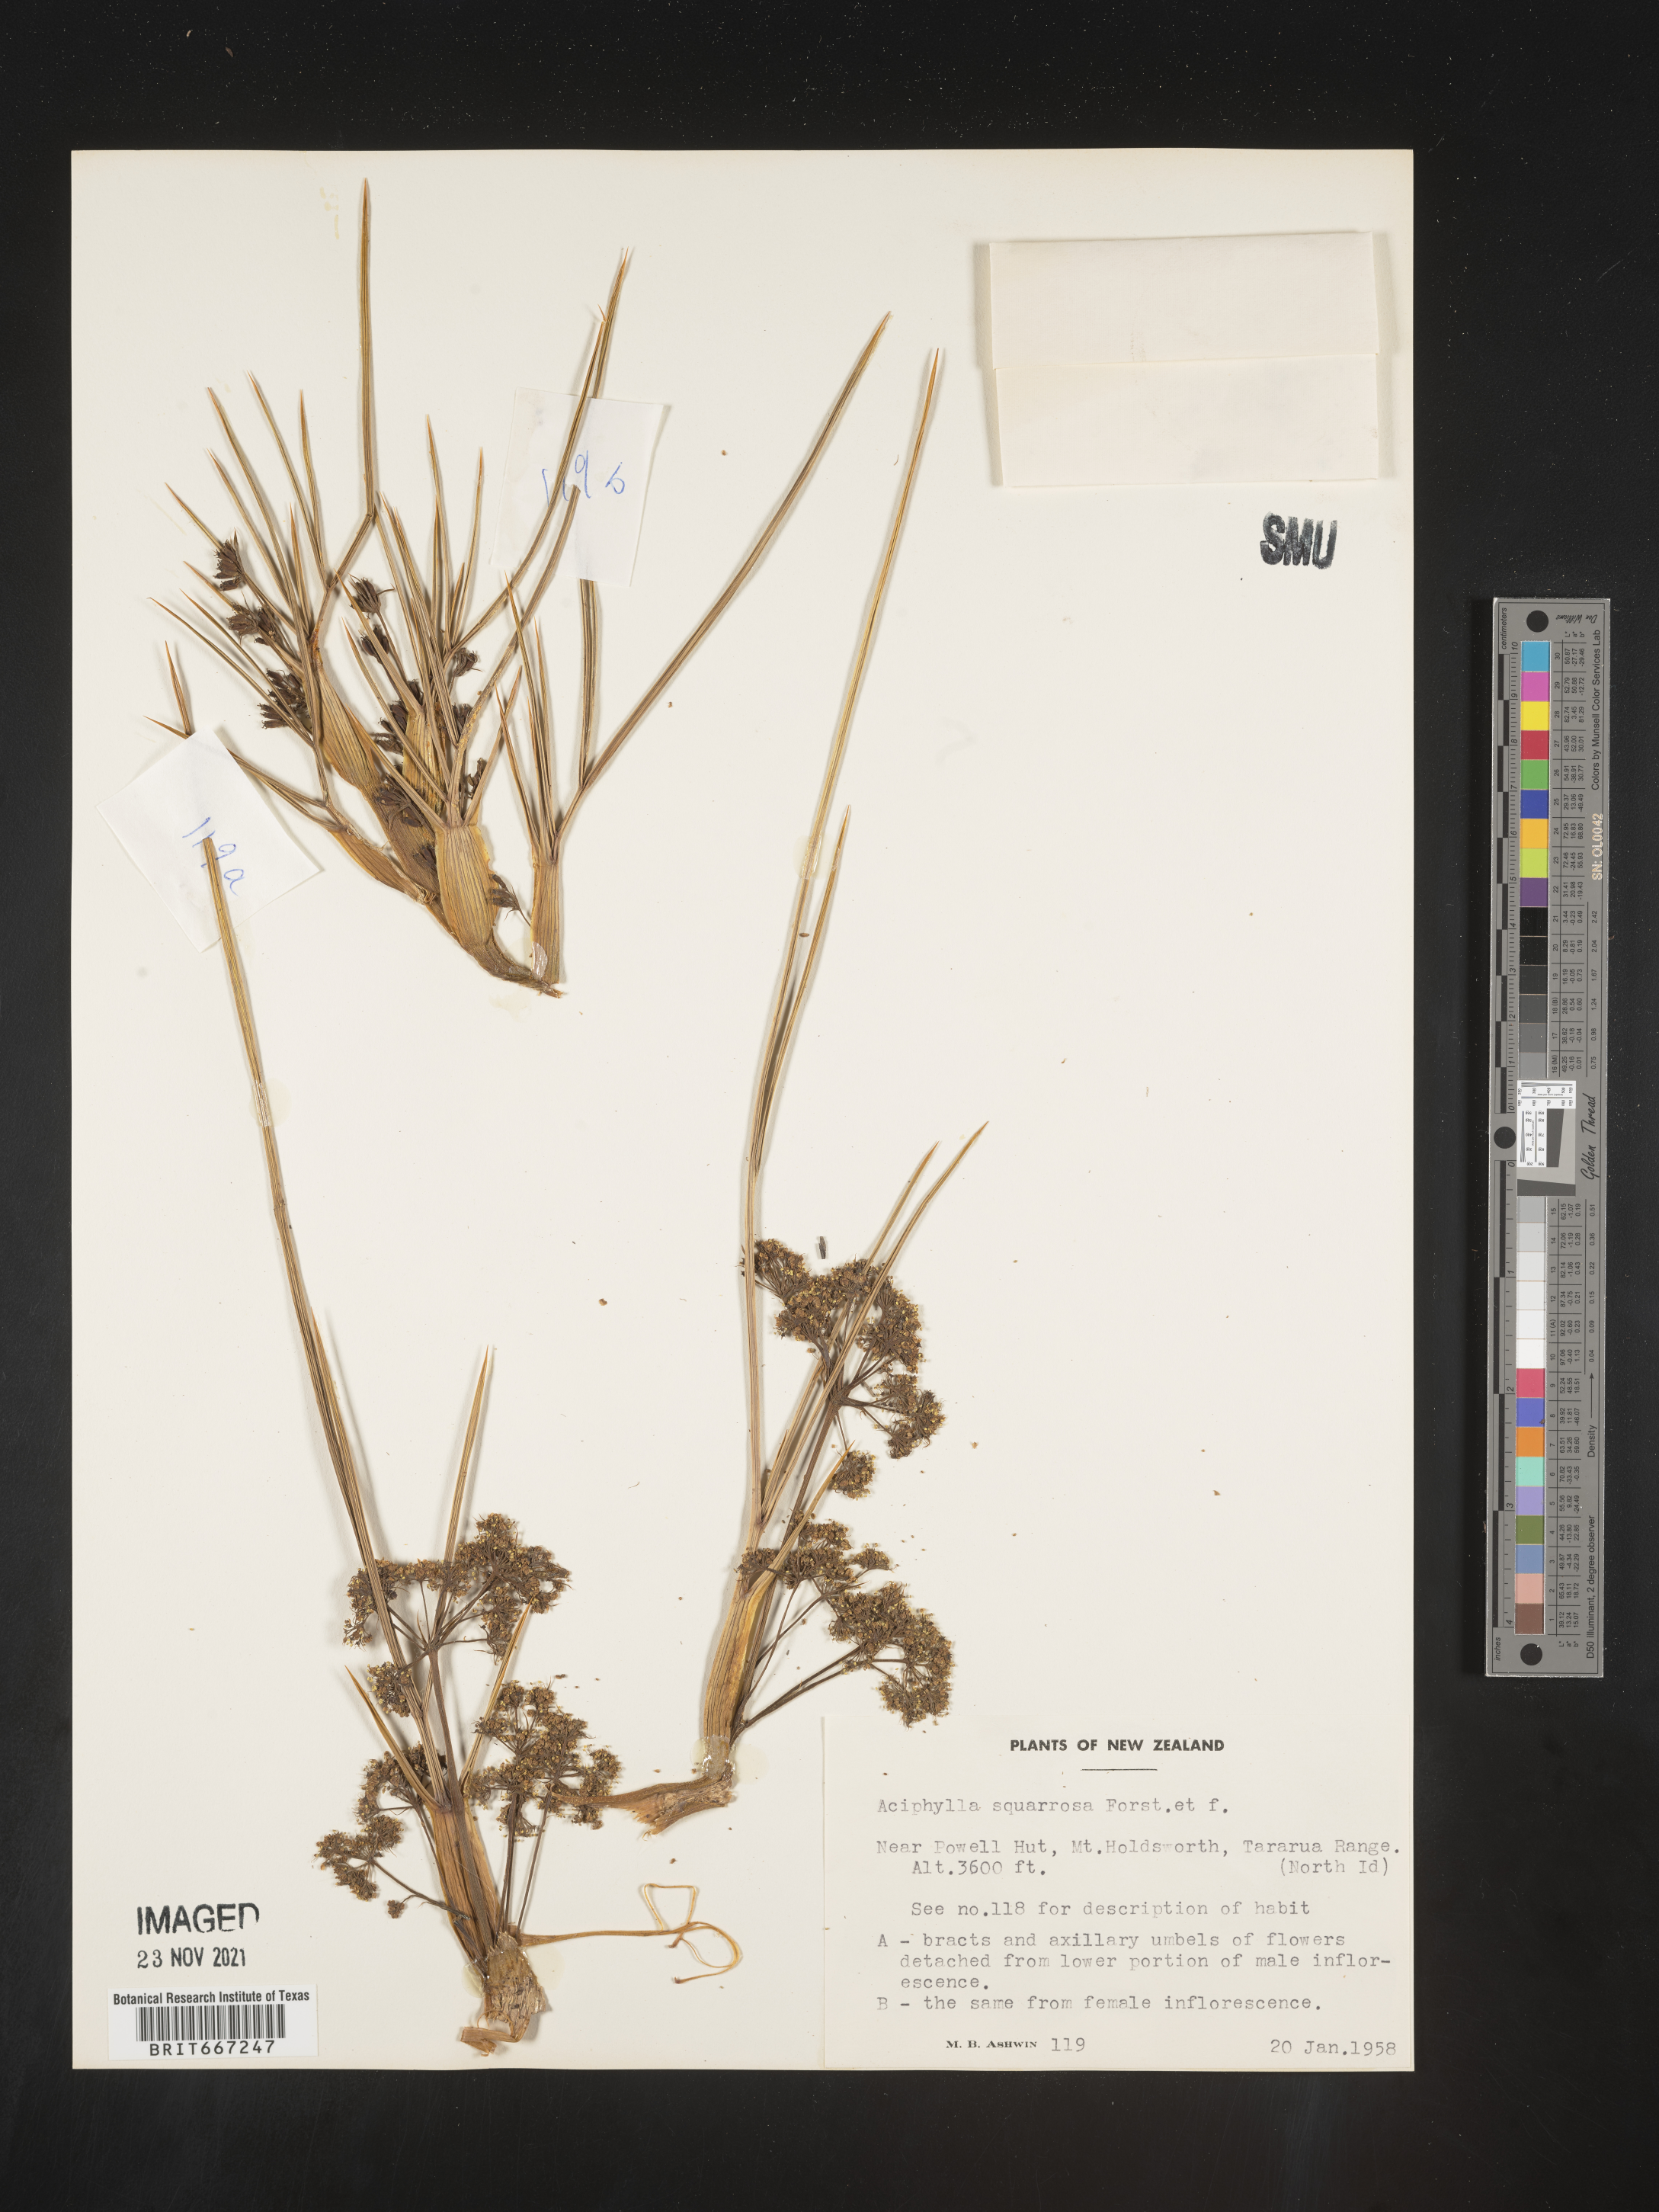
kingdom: Plantae
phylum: Tracheophyta
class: Magnoliopsida
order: Apiales
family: Apiaceae
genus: Aciphylla
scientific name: Aciphylla
